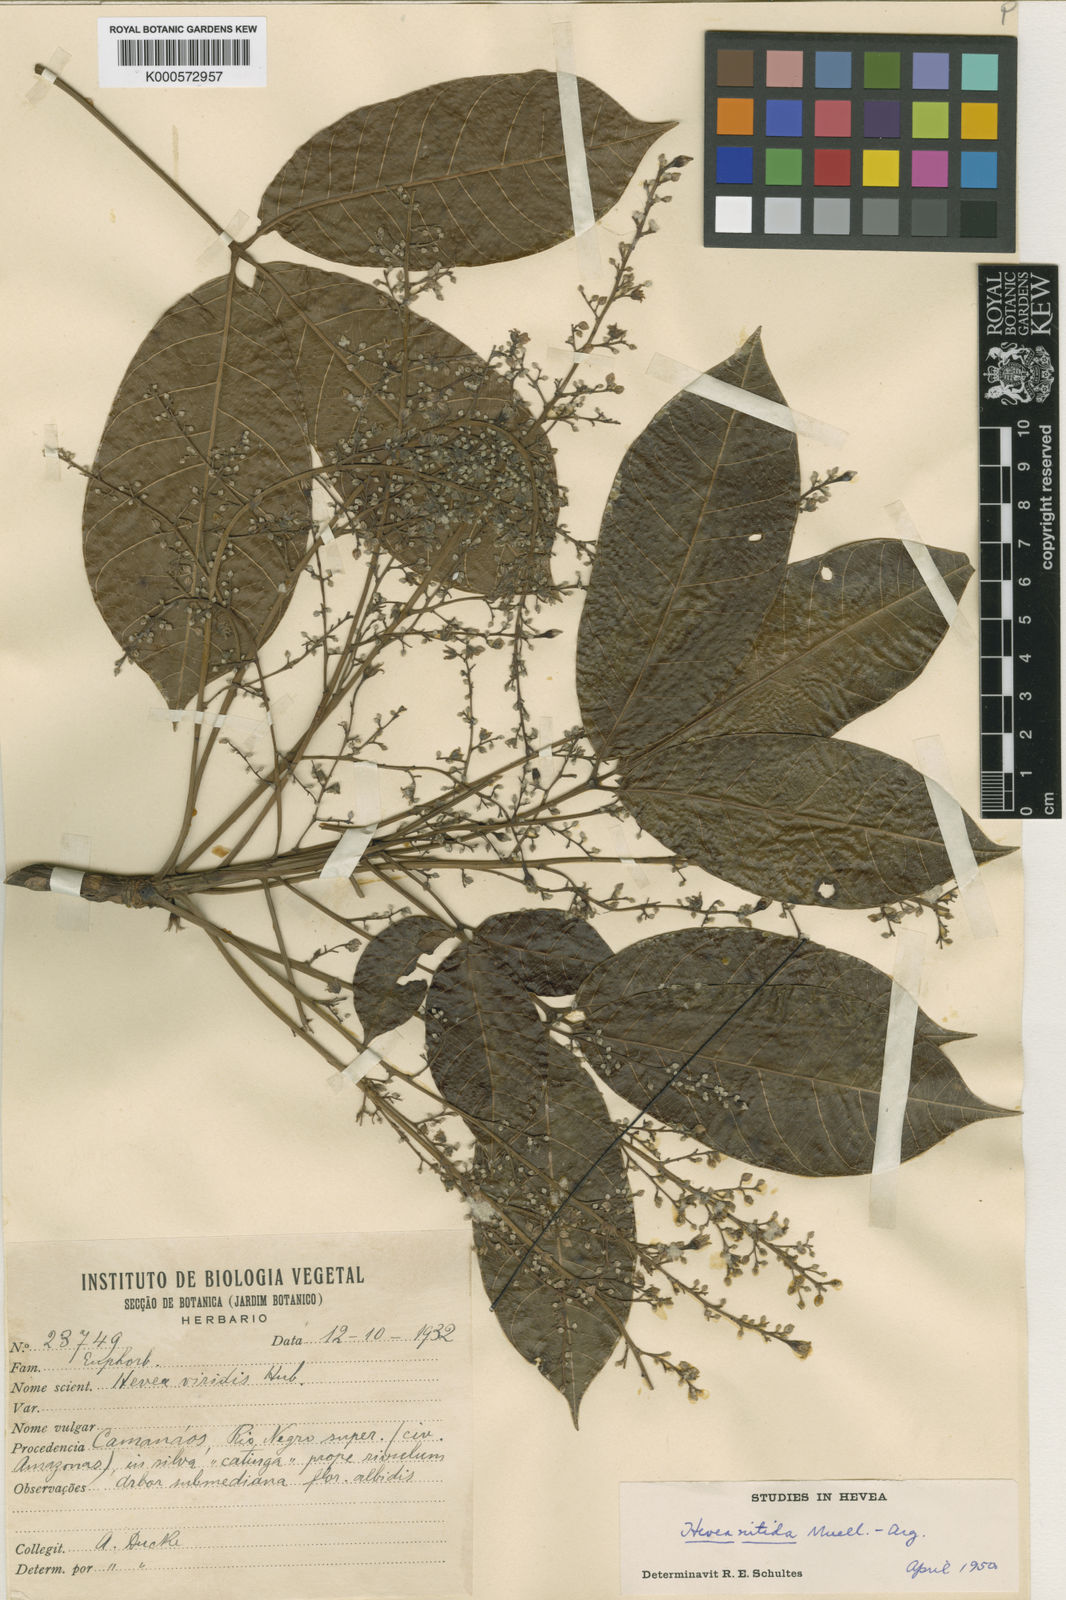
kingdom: Plantae
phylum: Tracheophyta
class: Magnoliopsida
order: Malpighiales
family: Euphorbiaceae
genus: Hevea
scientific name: Hevea nitida
